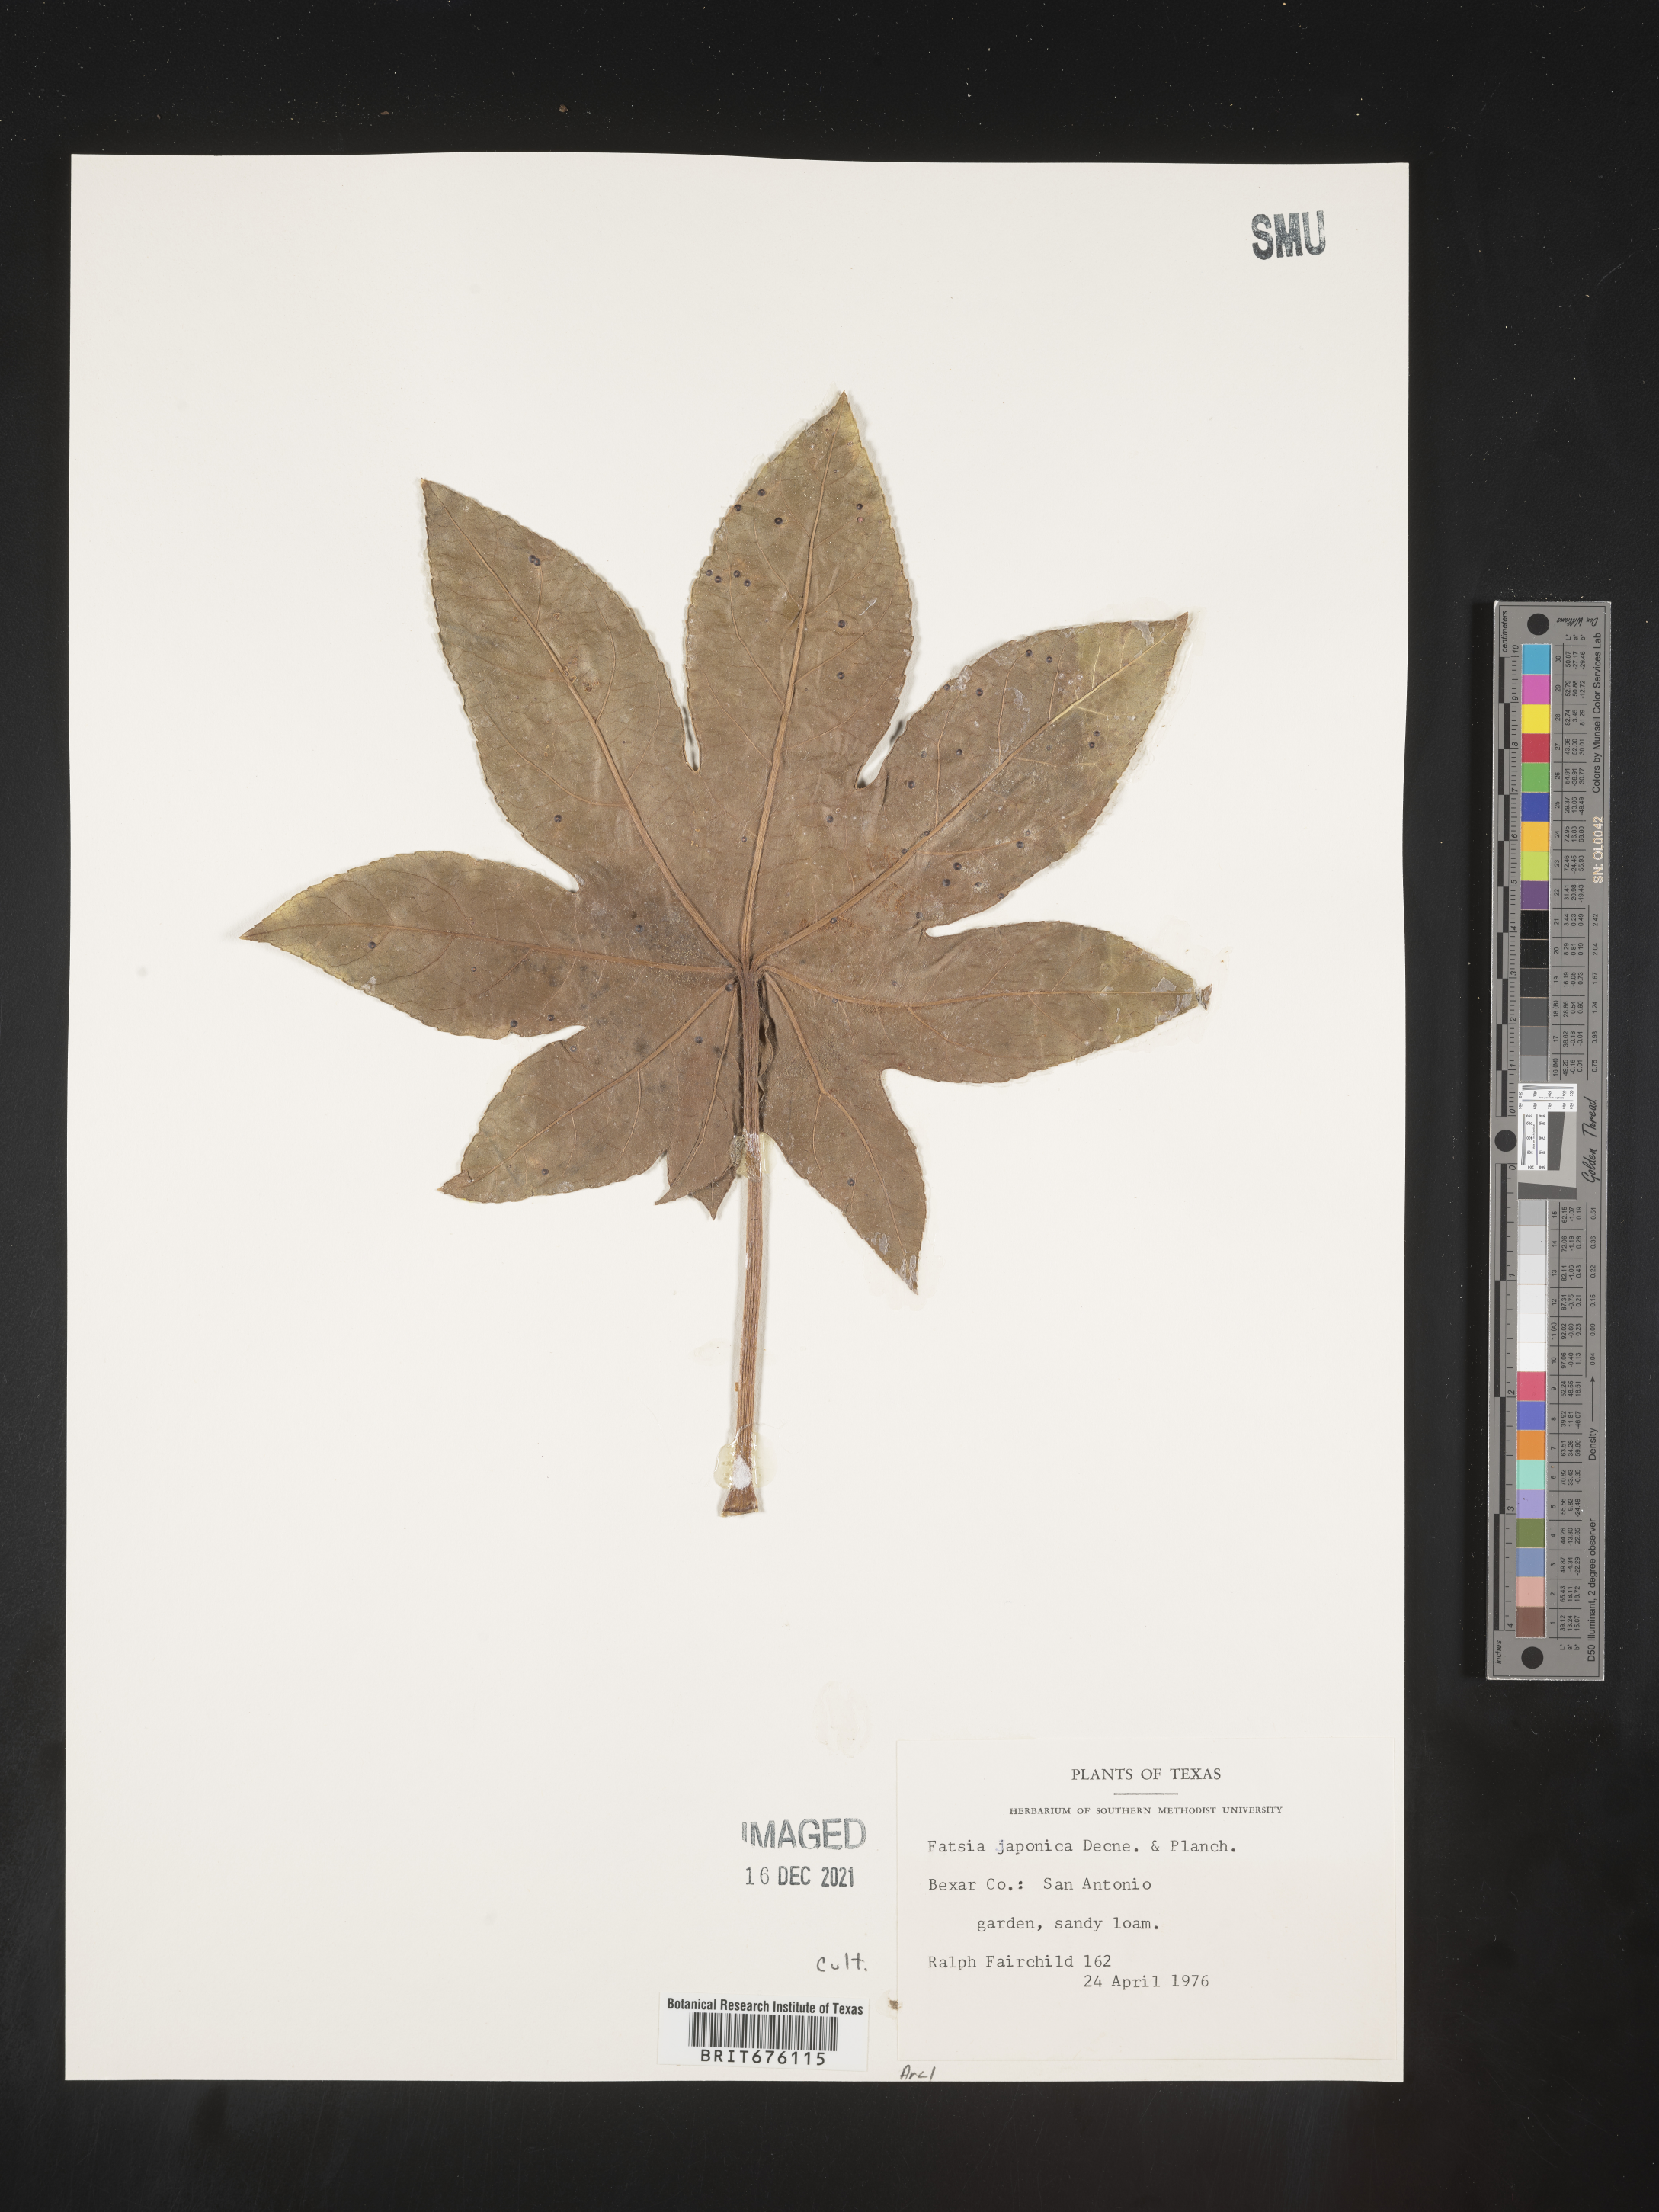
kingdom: Plantae
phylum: Tracheophyta
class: Magnoliopsida
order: Apiales
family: Araliaceae
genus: Fatsia
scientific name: Fatsia
